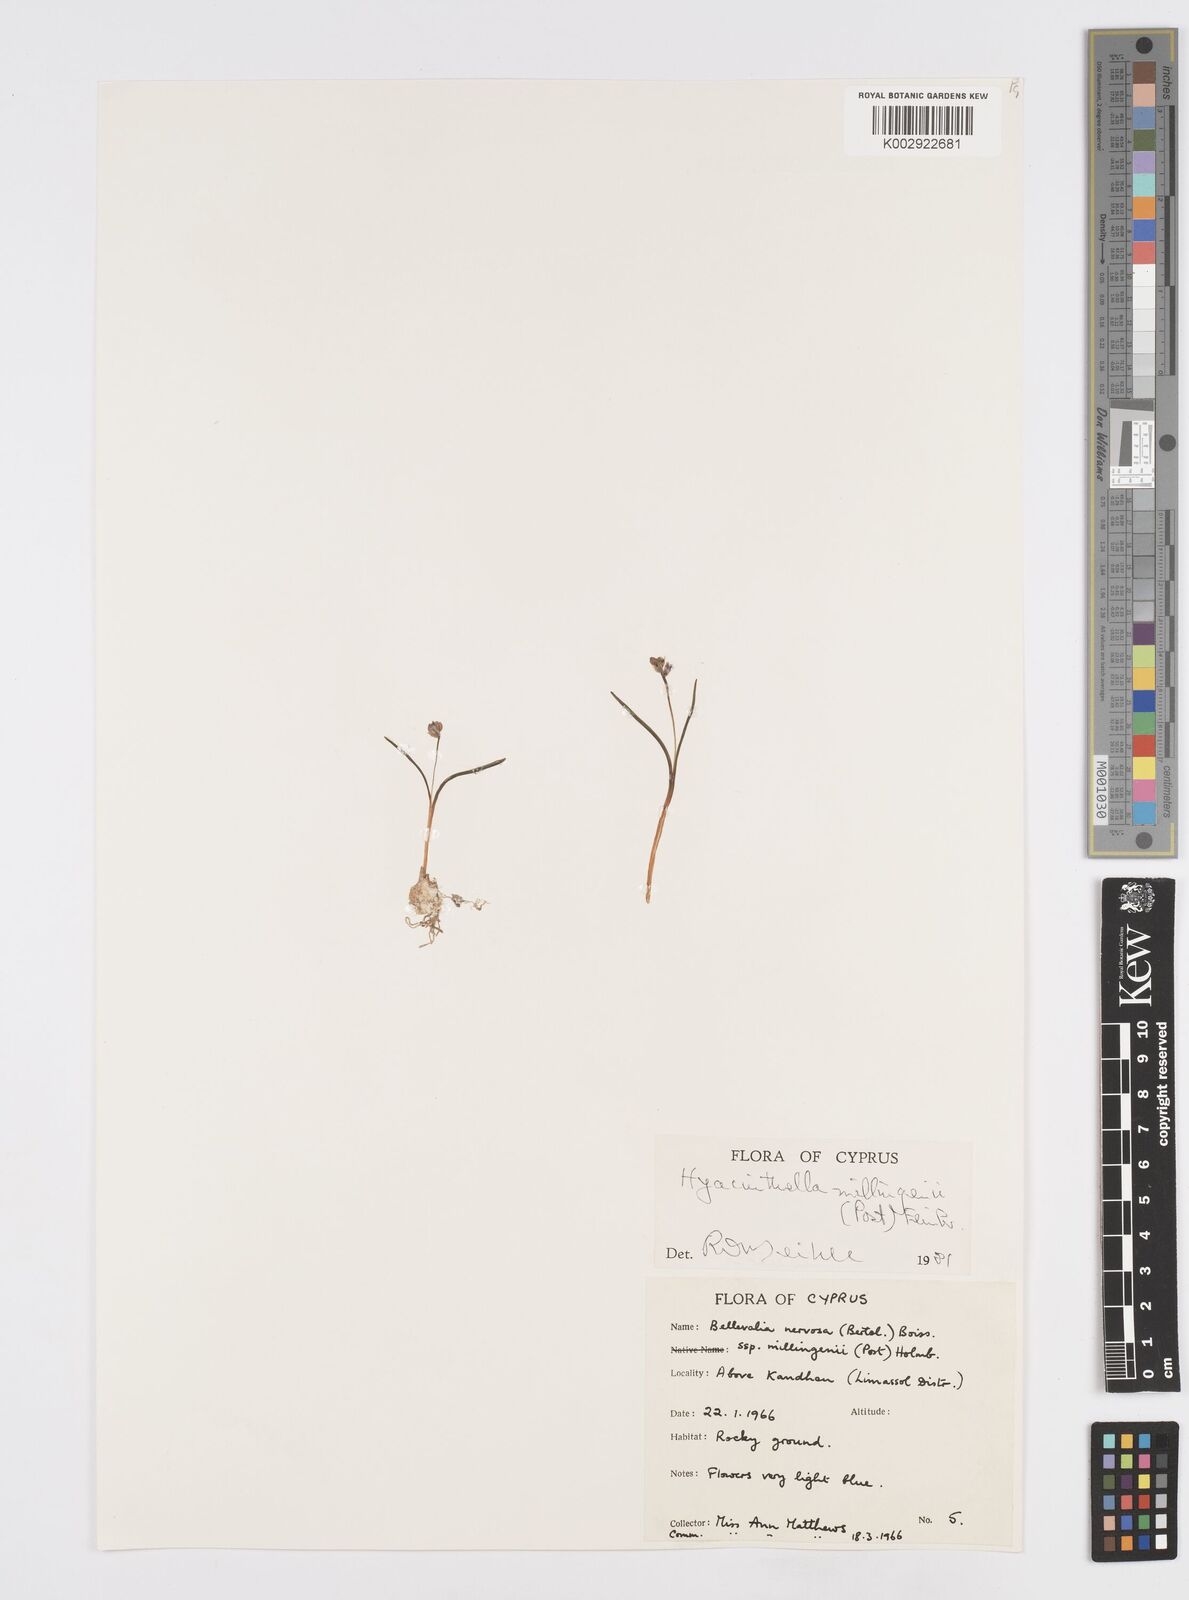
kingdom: Plantae
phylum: Tracheophyta
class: Liliopsida
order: Asparagales
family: Asparagaceae
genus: Hyacinthella
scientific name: Hyacinthella millingenii
